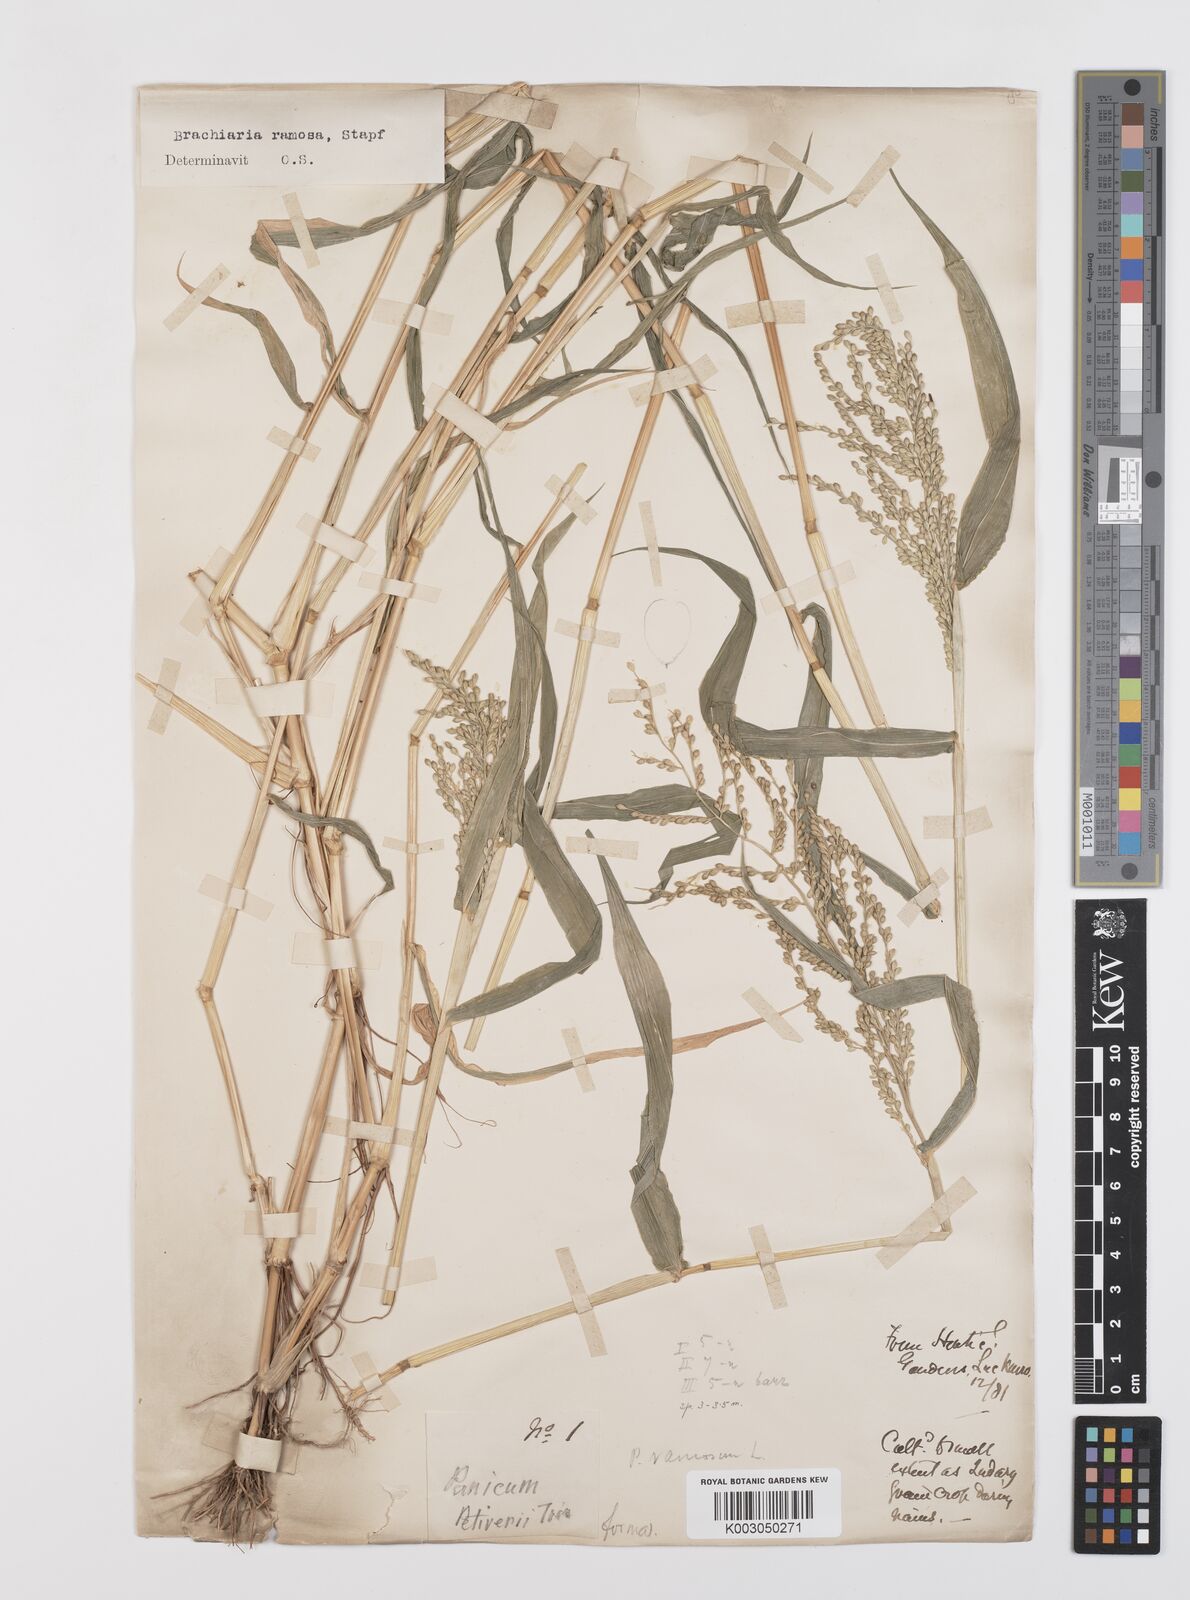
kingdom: Plantae
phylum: Tracheophyta
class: Liliopsida
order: Poales
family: Poaceae
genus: Urochloa
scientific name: Urochloa ramosa
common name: Browntop millet
